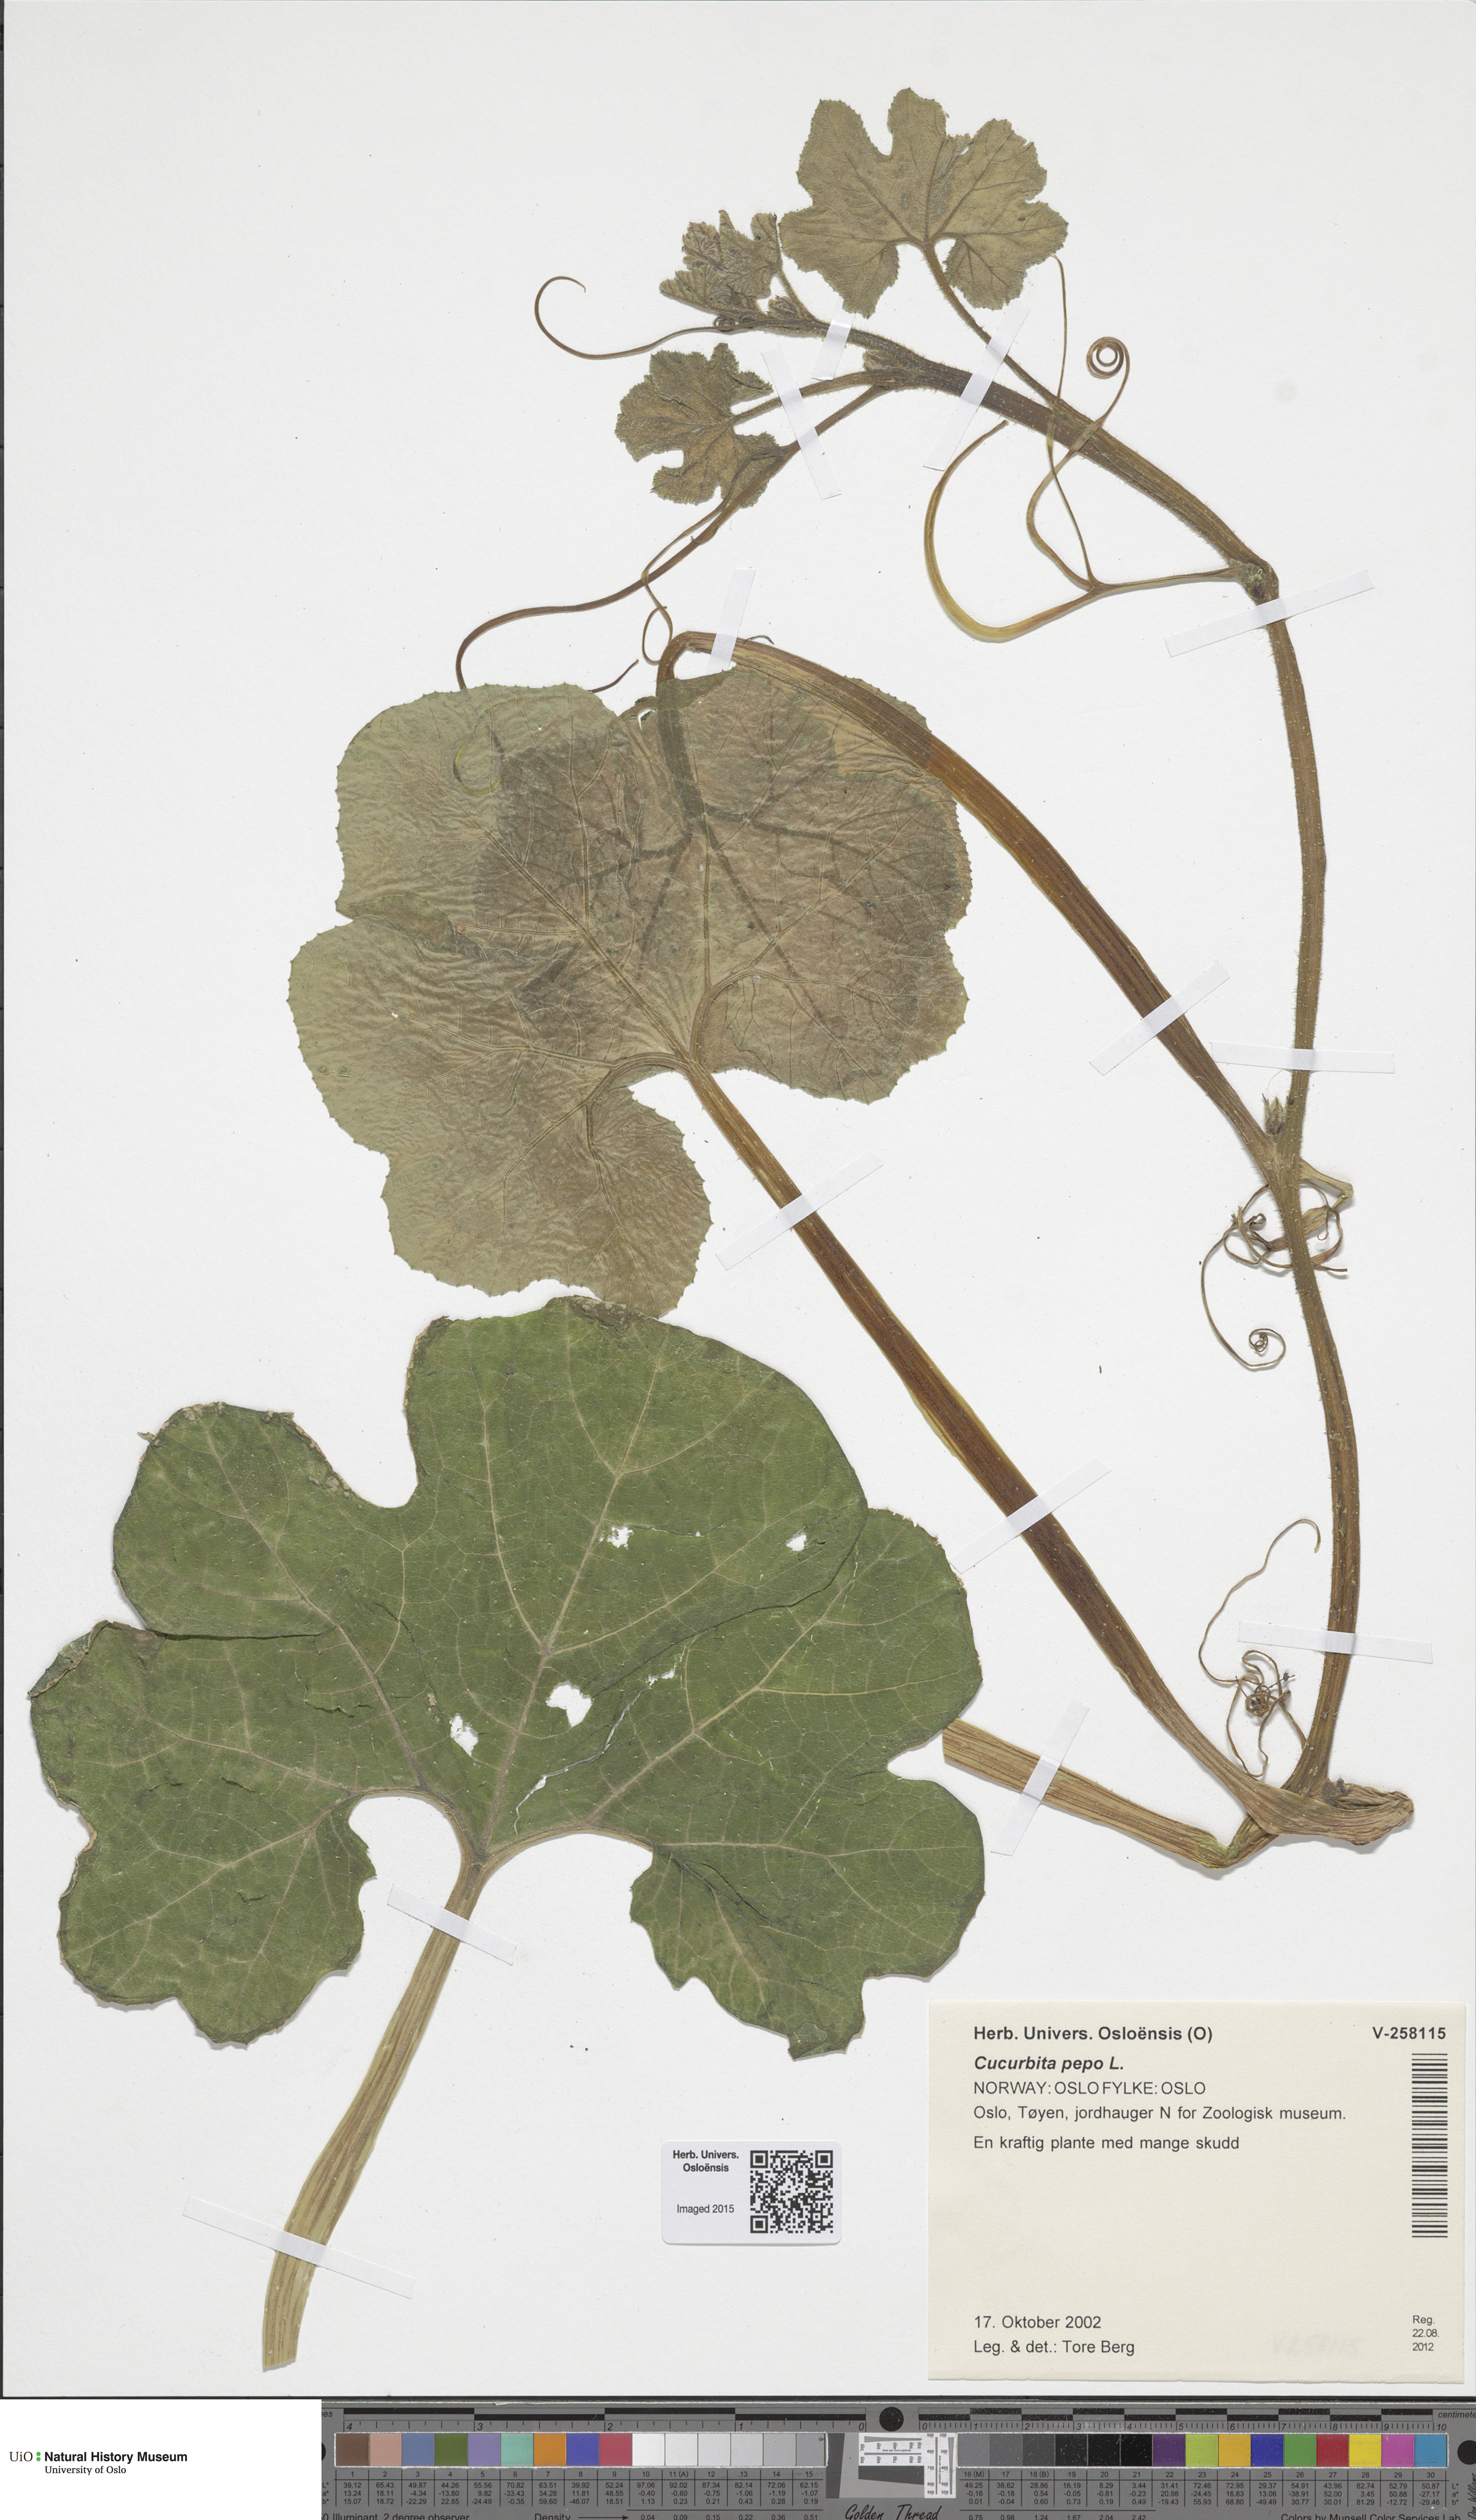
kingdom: Plantae
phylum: Tracheophyta
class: Magnoliopsida
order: Cucurbitales
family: Cucurbitaceae
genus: Cucurbita
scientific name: Cucurbita pepo
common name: Marrow
